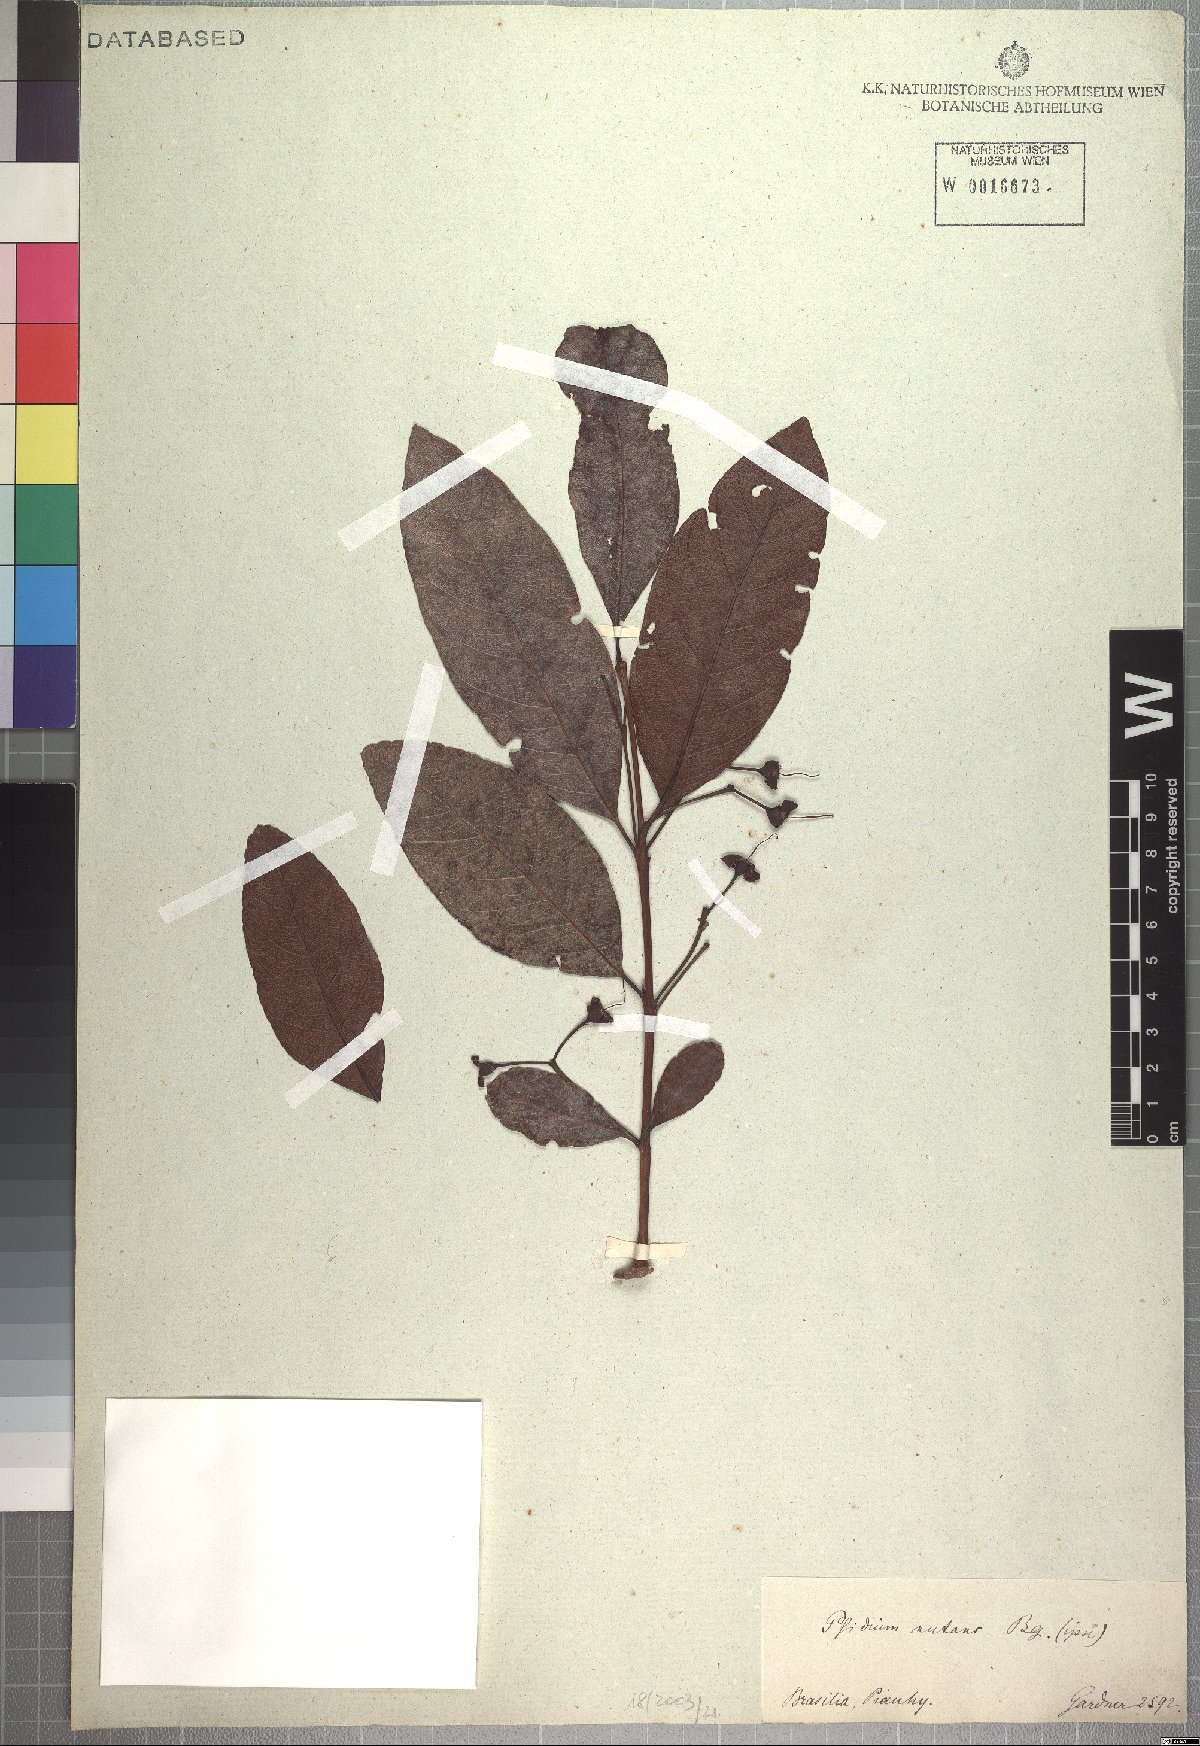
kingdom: Plantae
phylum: Tracheophyta
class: Magnoliopsida
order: Myrtales
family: Myrtaceae
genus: Psidium
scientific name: Psidium nutans
